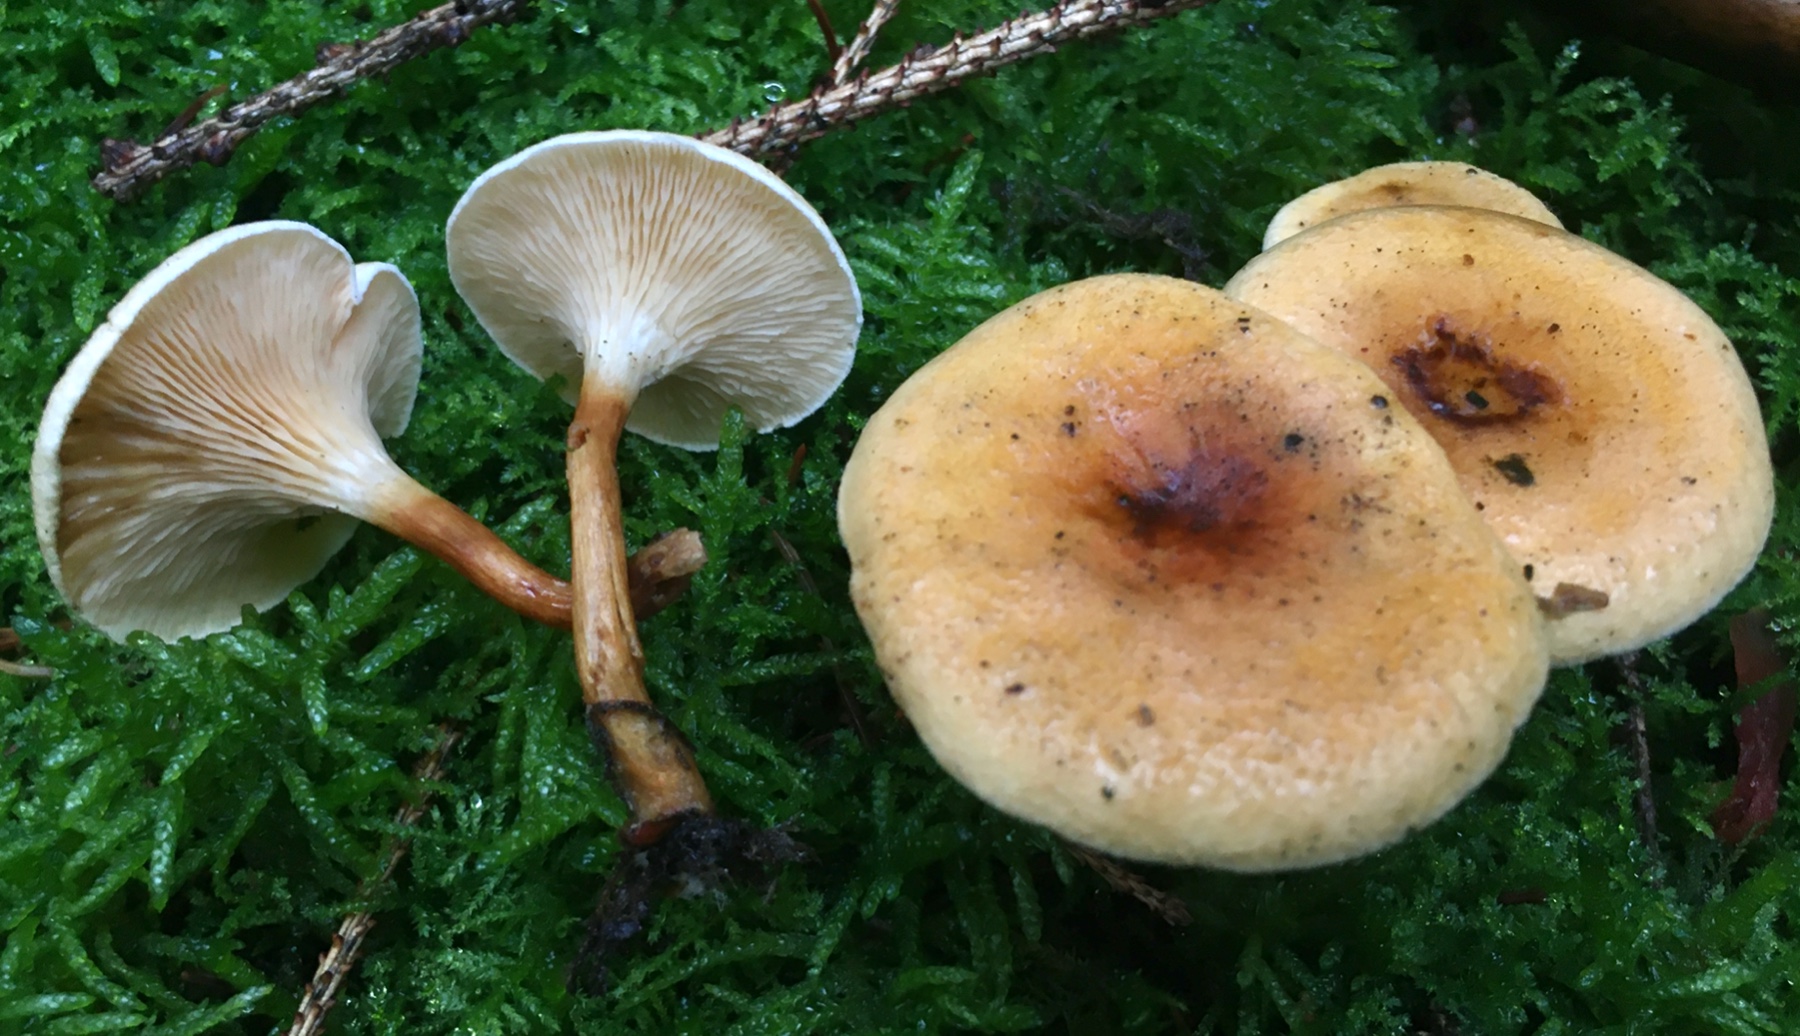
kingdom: Fungi
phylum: Basidiomycota
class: Agaricomycetes
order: Boletales
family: Hygrophoropsidaceae
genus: Hygrophoropsis
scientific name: Hygrophoropsis aurantiaca
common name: almindelig orangekantarel
